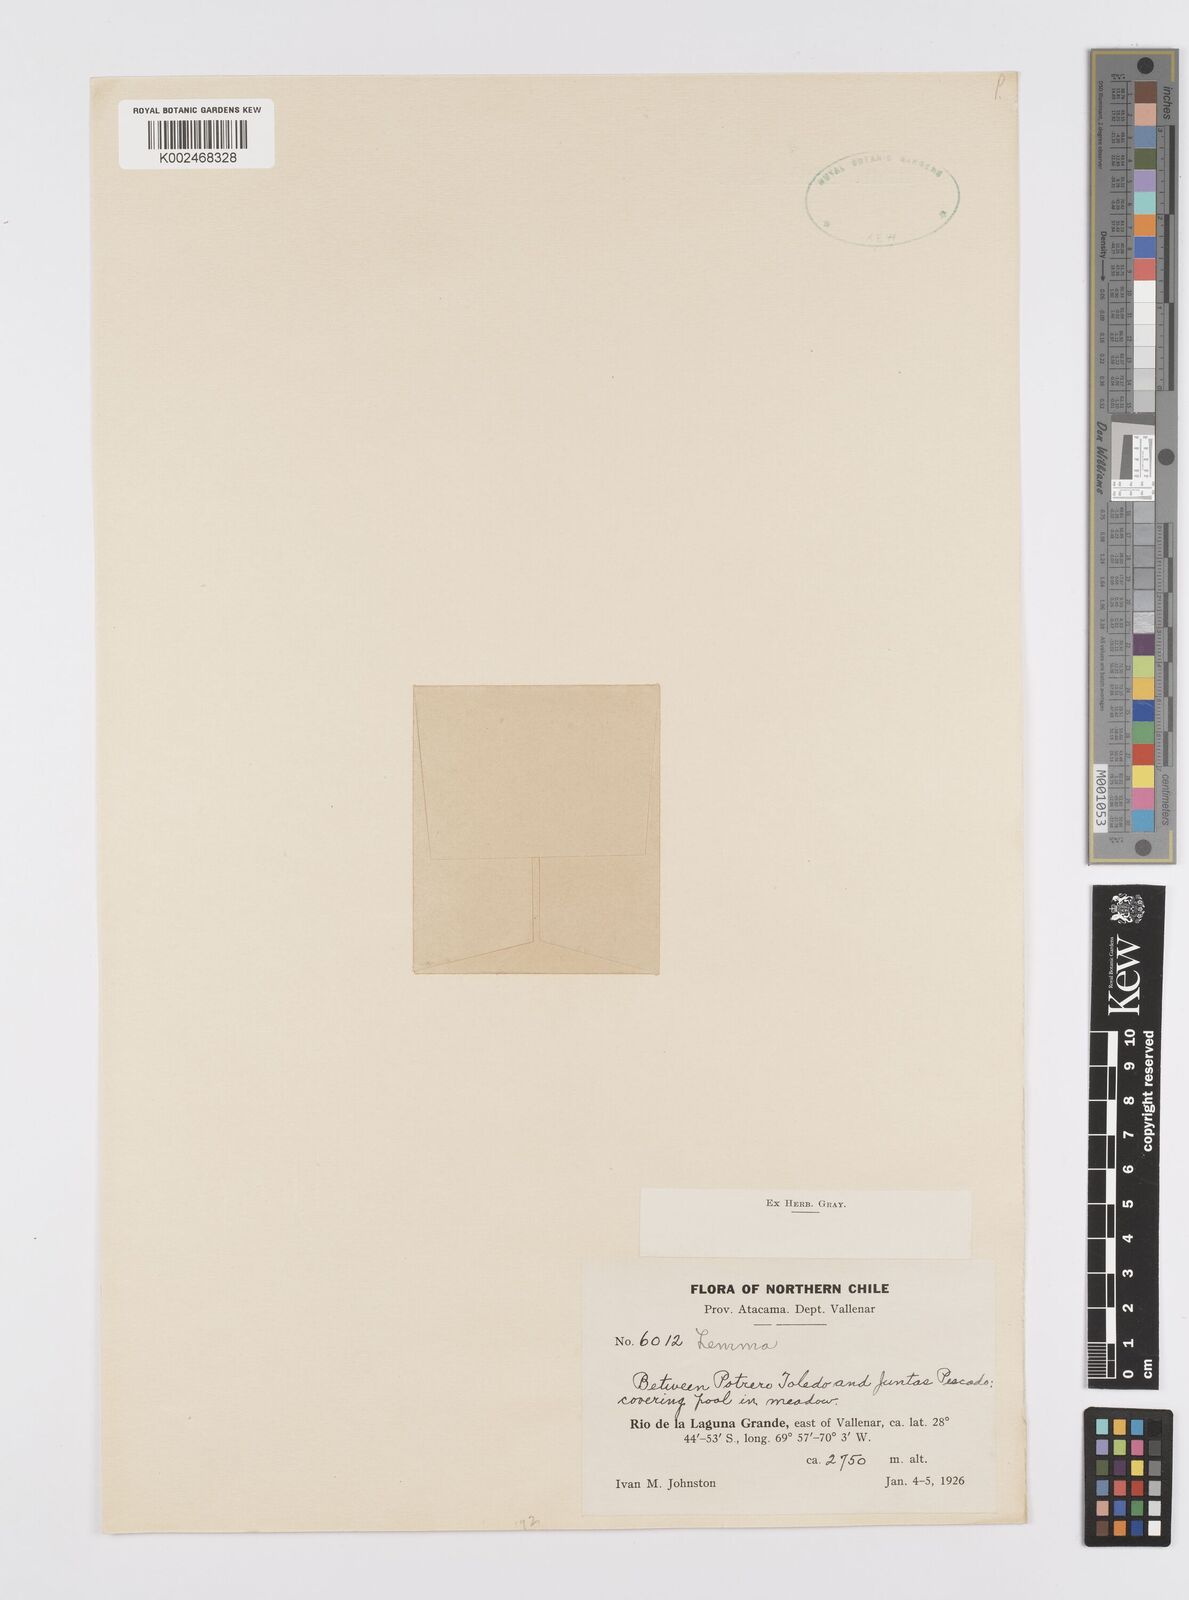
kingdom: Plantae
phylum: Tracheophyta
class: Liliopsida
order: Alismatales
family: Araceae
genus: Lemna
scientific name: Lemna
